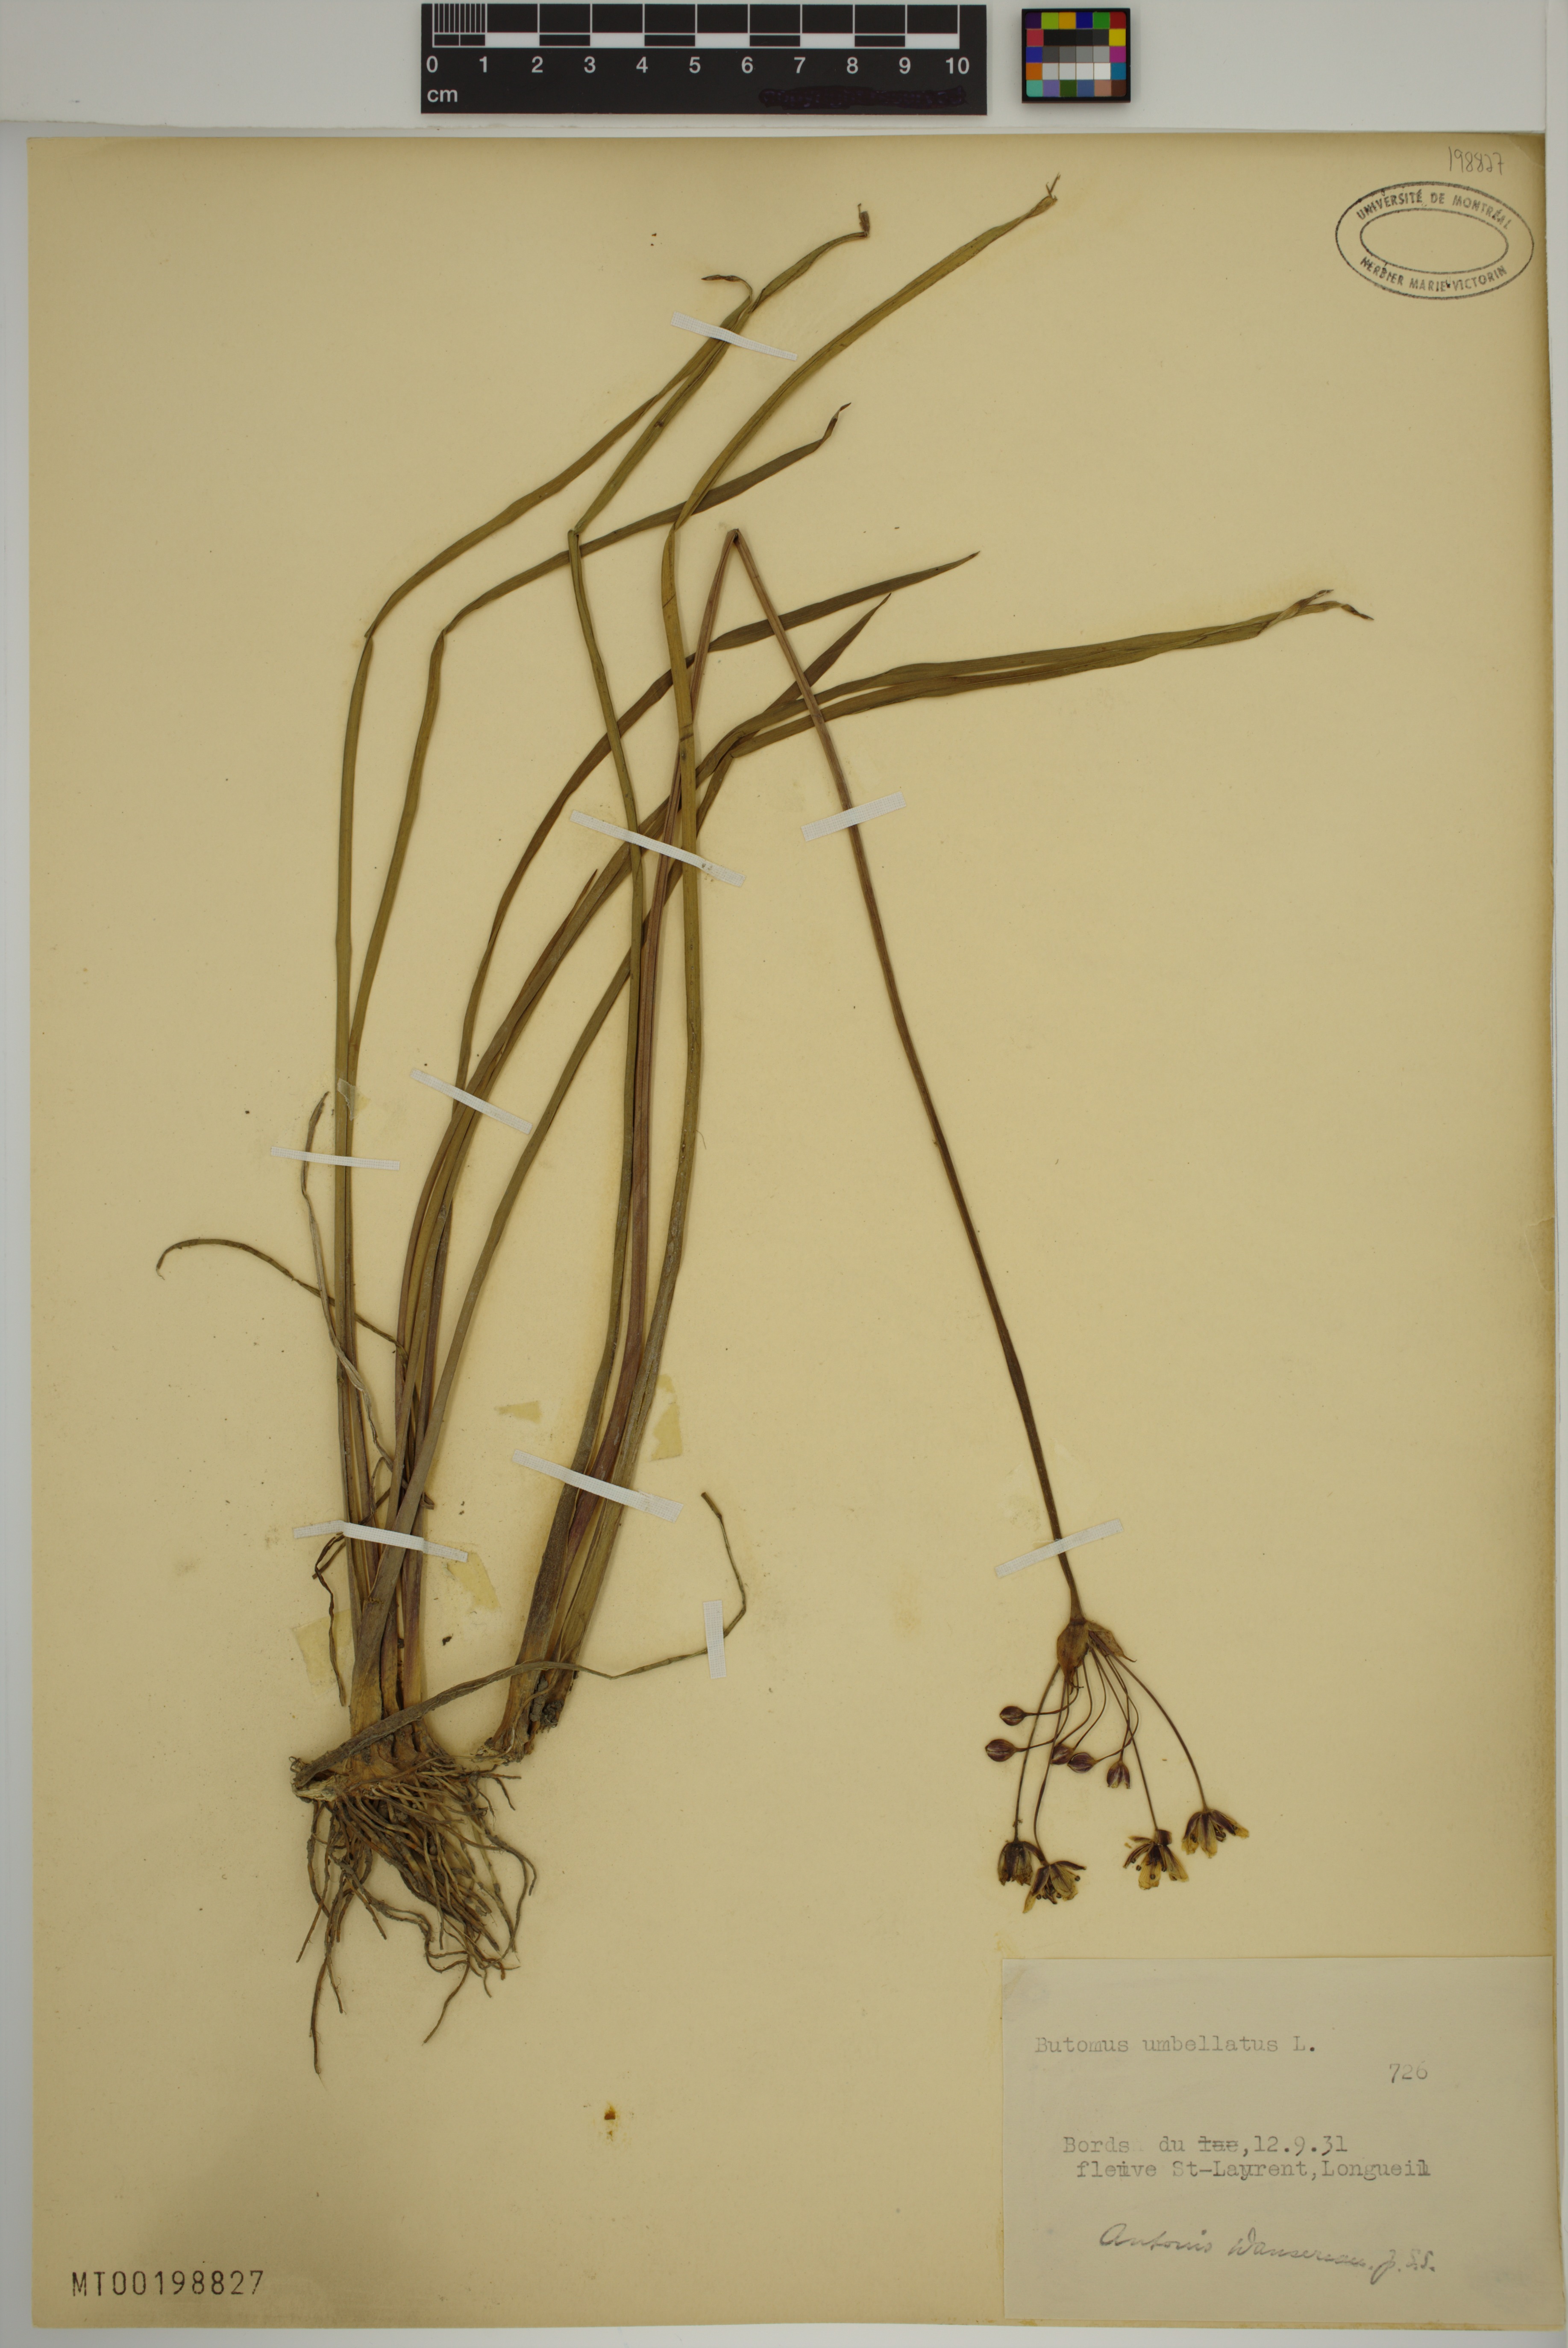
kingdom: Plantae
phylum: Tracheophyta
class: Liliopsida
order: Alismatales
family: Butomaceae
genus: Butomus
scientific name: Butomus umbellatus
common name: Flowering-rush
